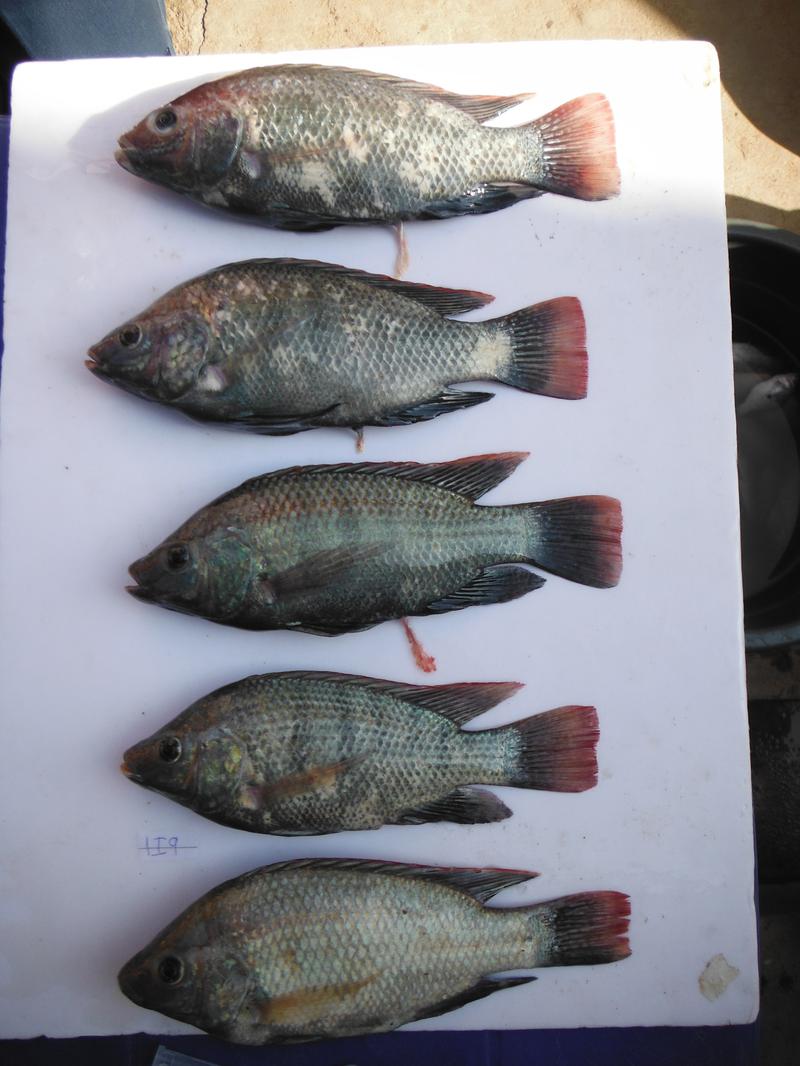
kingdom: Animalia
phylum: Chordata
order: Perciformes
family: Cichlidae
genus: Oreochromis
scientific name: Oreochromis rukwaensis
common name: Lake rukwa tilapia
